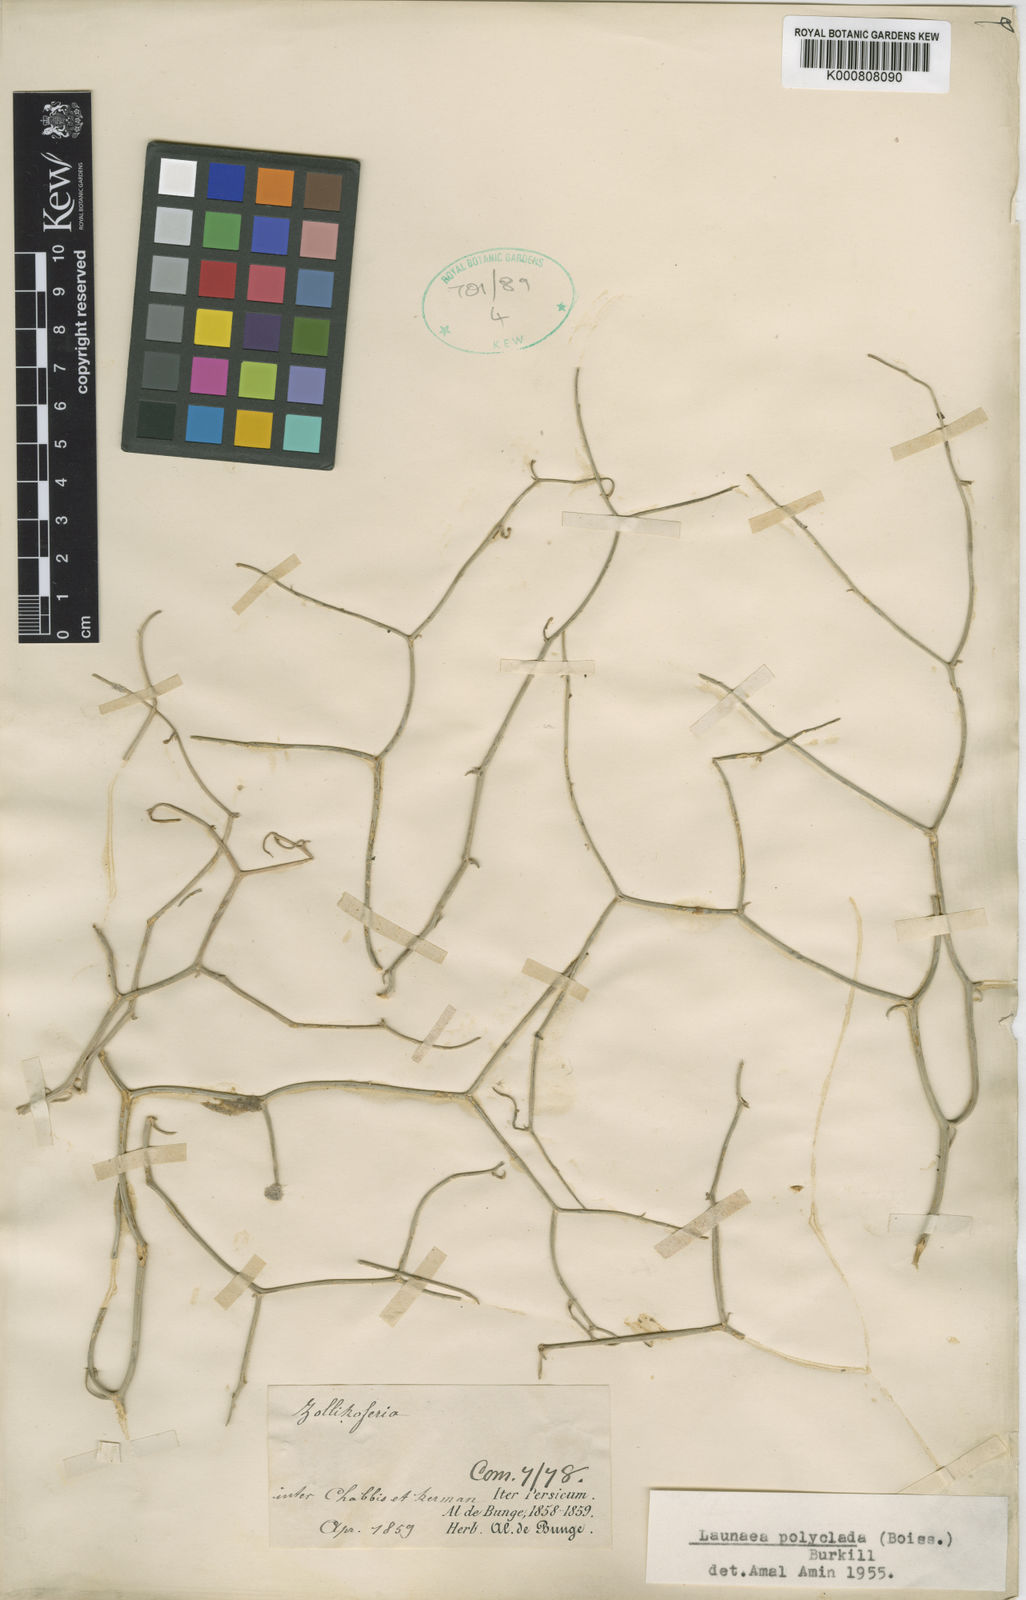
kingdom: Plantae
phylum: Tracheophyta
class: Magnoliopsida
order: Asterales
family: Asteraceae
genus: Melanoseris
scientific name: Melanoseris polyclada
